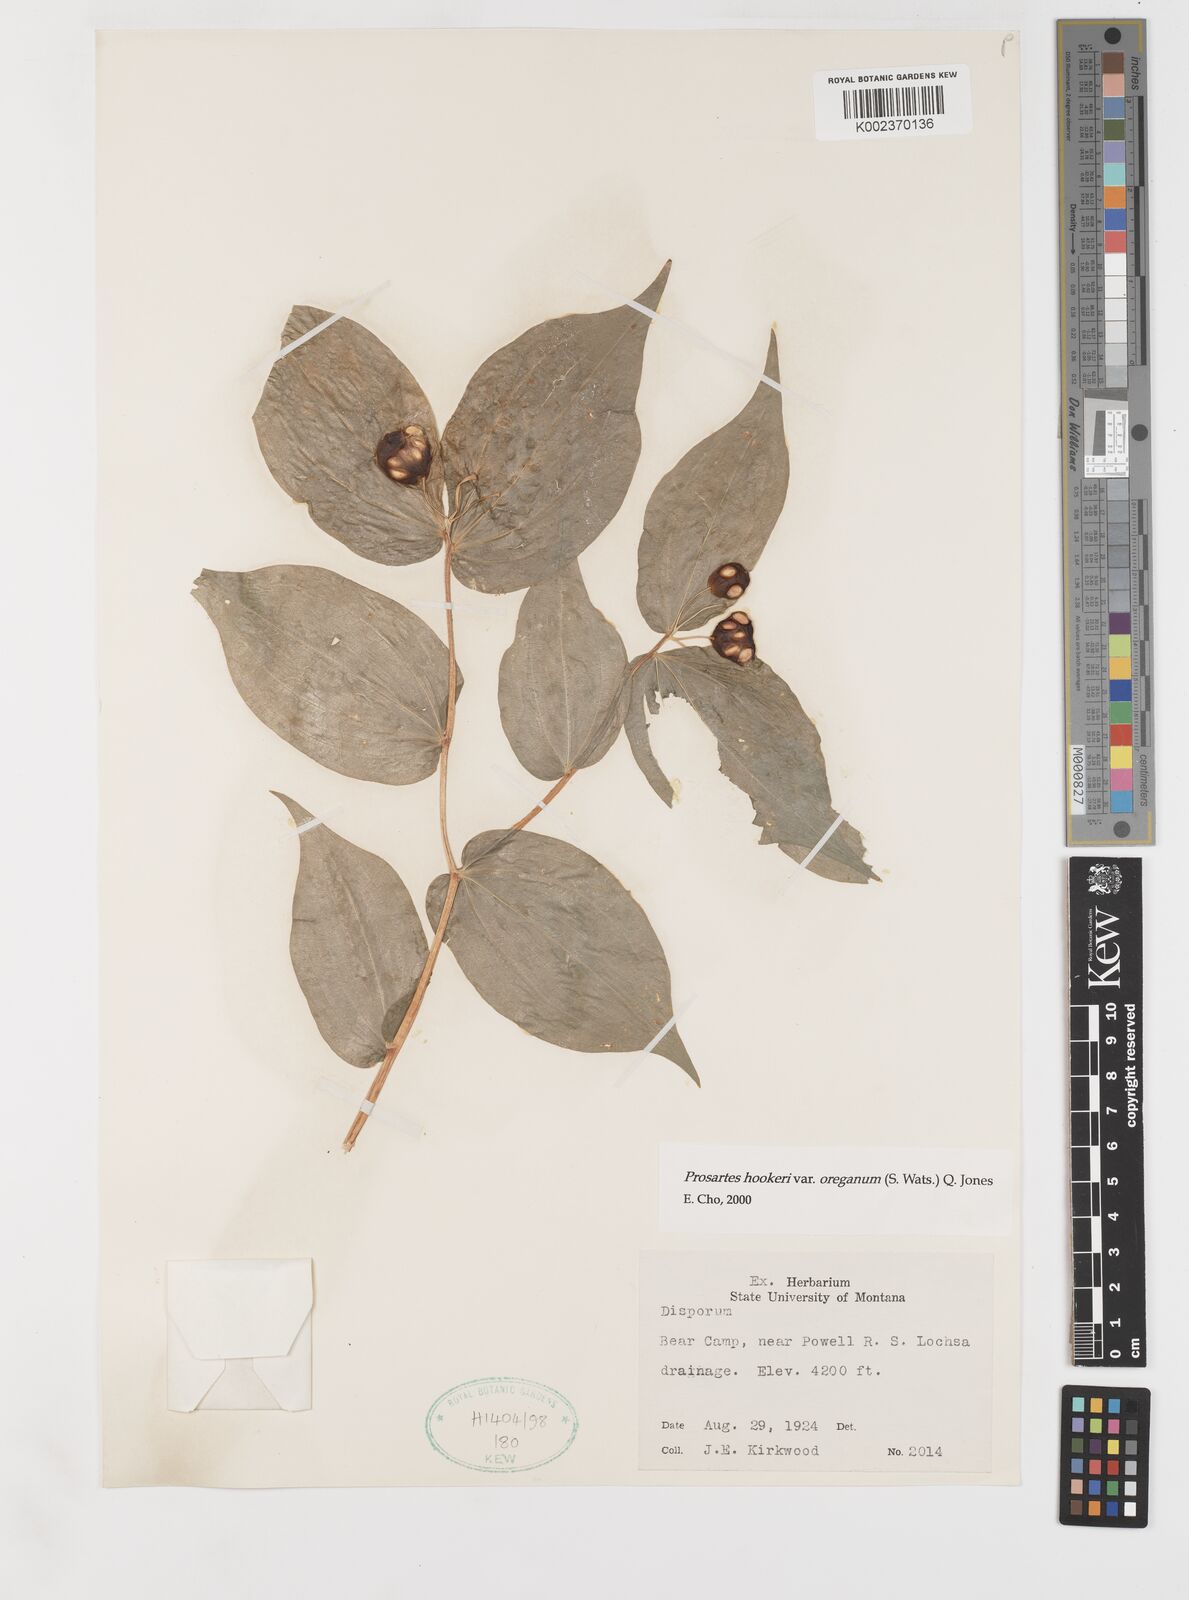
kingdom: Plantae
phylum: Tracheophyta
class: Liliopsida
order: Liliales
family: Liliaceae
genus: Prosartes
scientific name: Prosartes hookeri
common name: Fairy-bells
